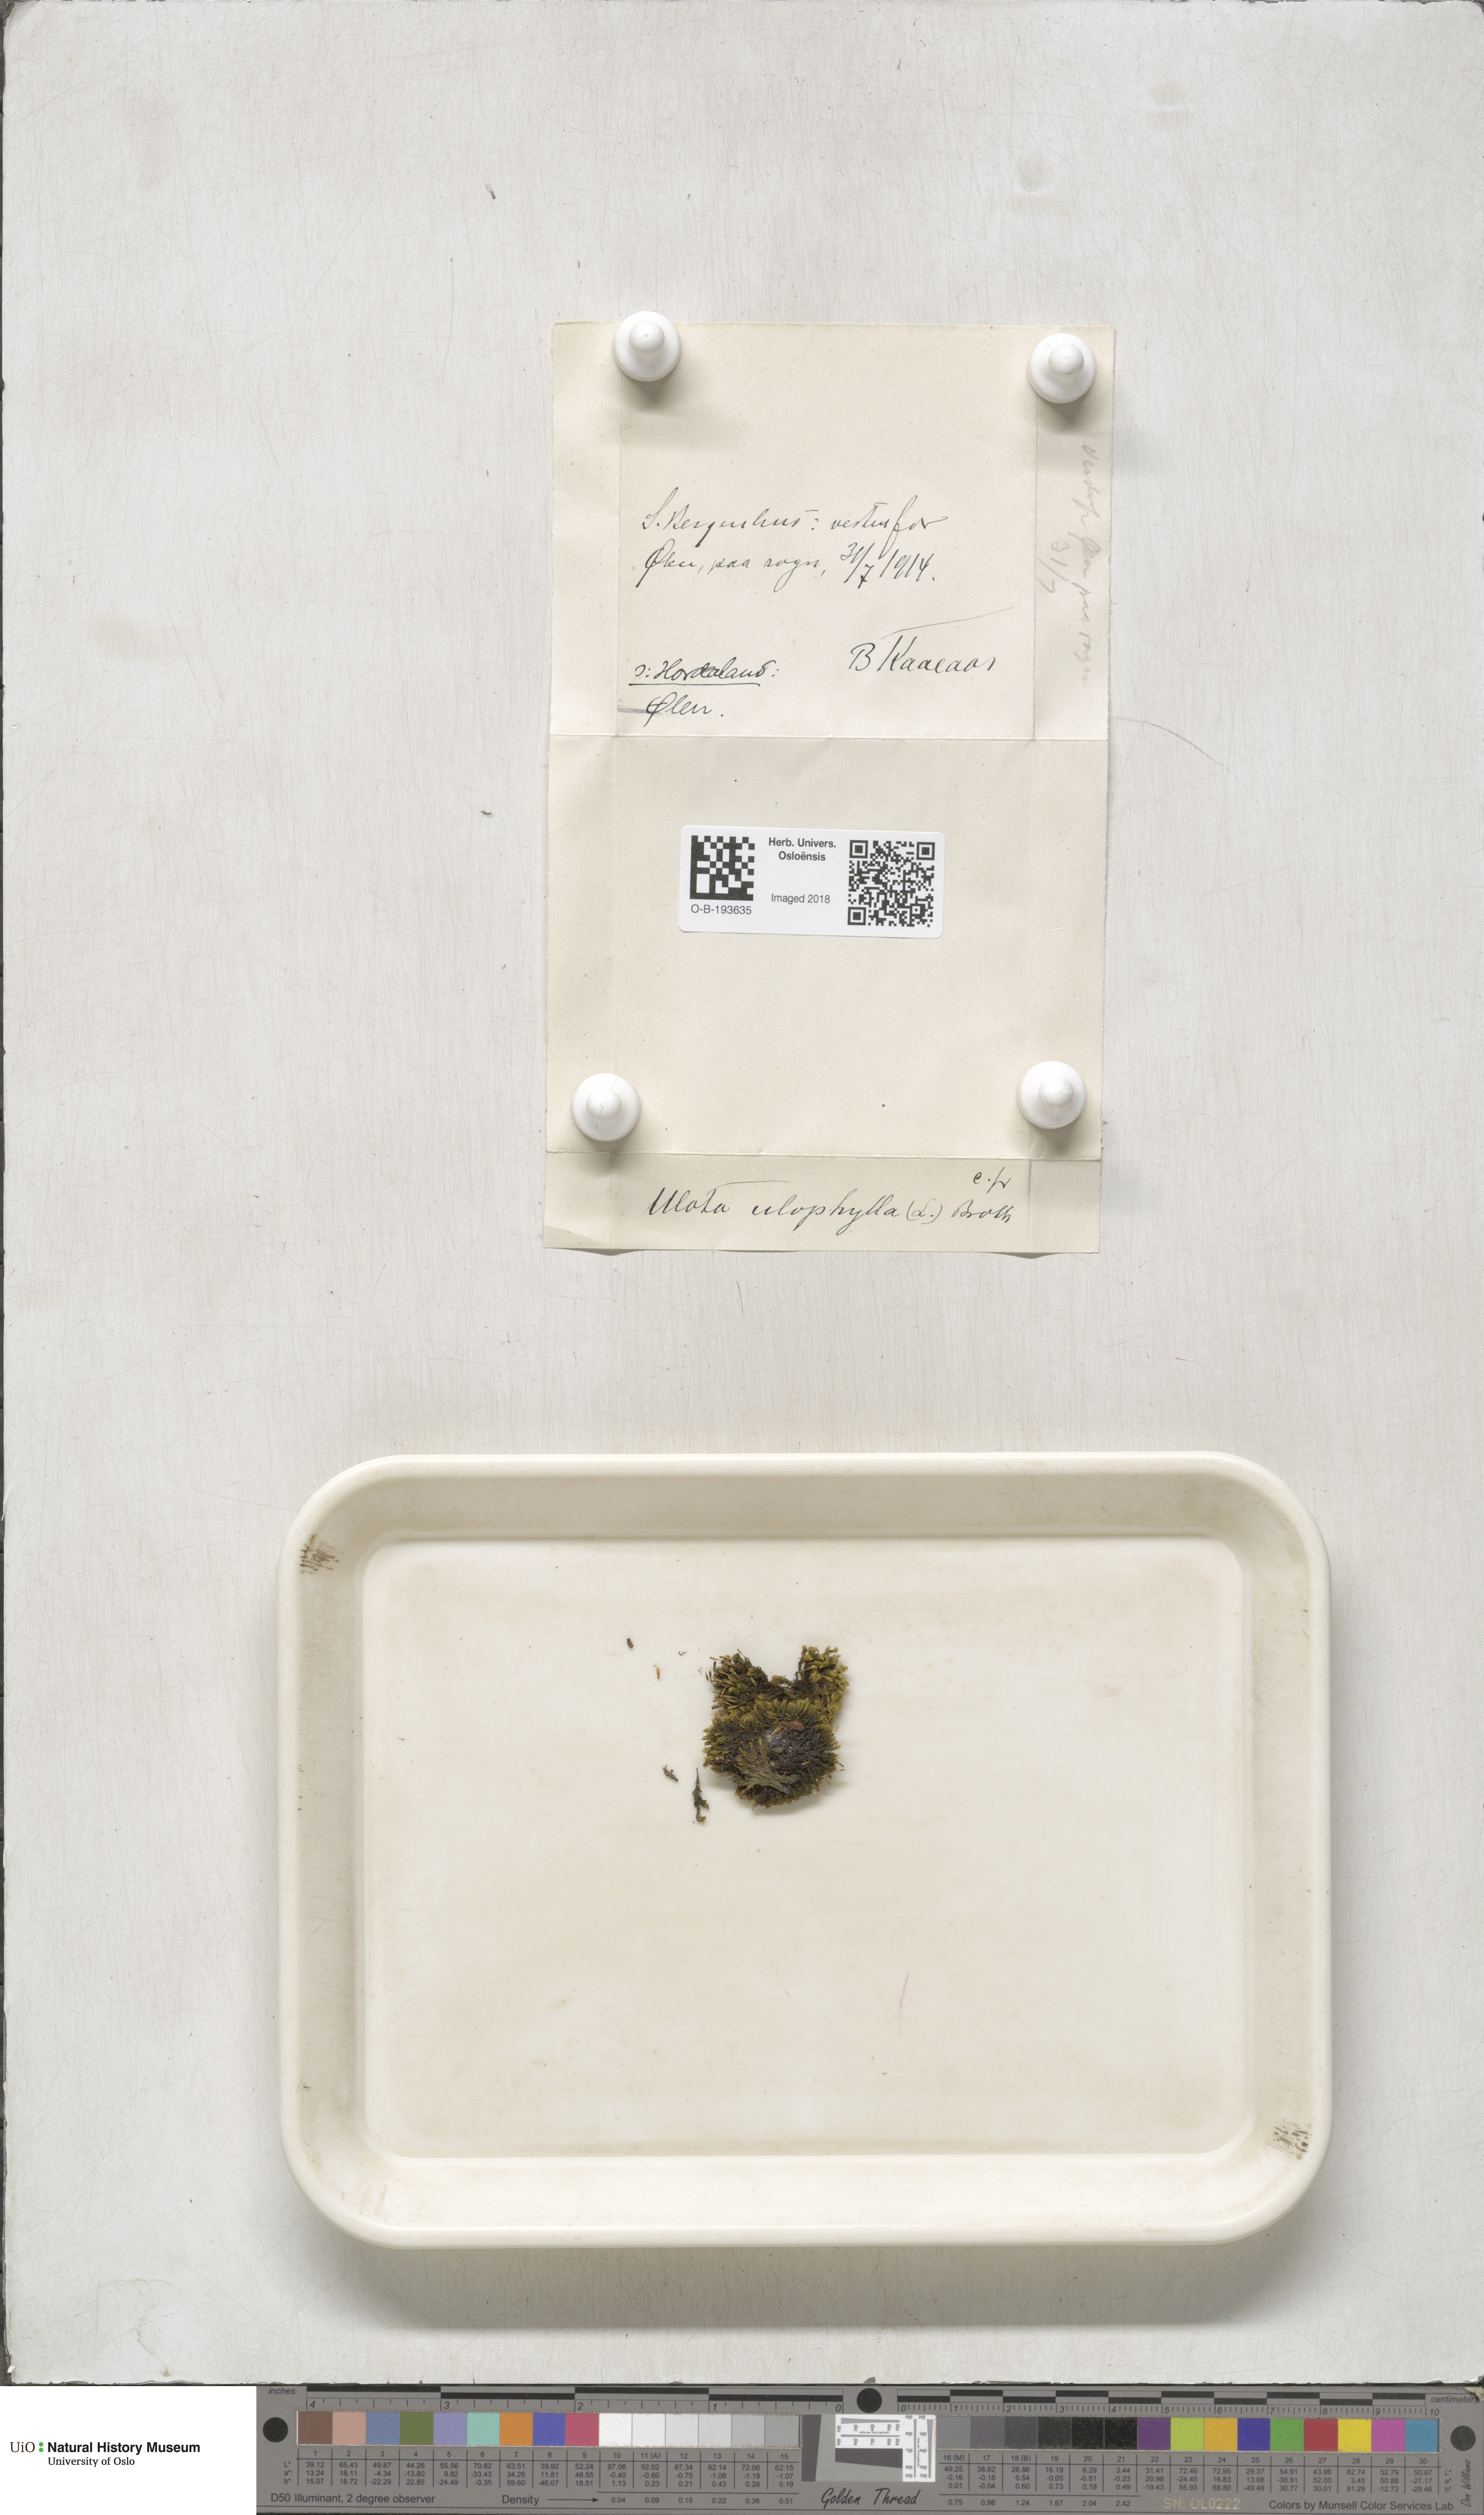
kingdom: Plantae
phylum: Bryophyta
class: Bryopsida
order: Orthotrichales
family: Orthotrichaceae
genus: Ulota
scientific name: Ulota crispa
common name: Crisped pincushion moss
